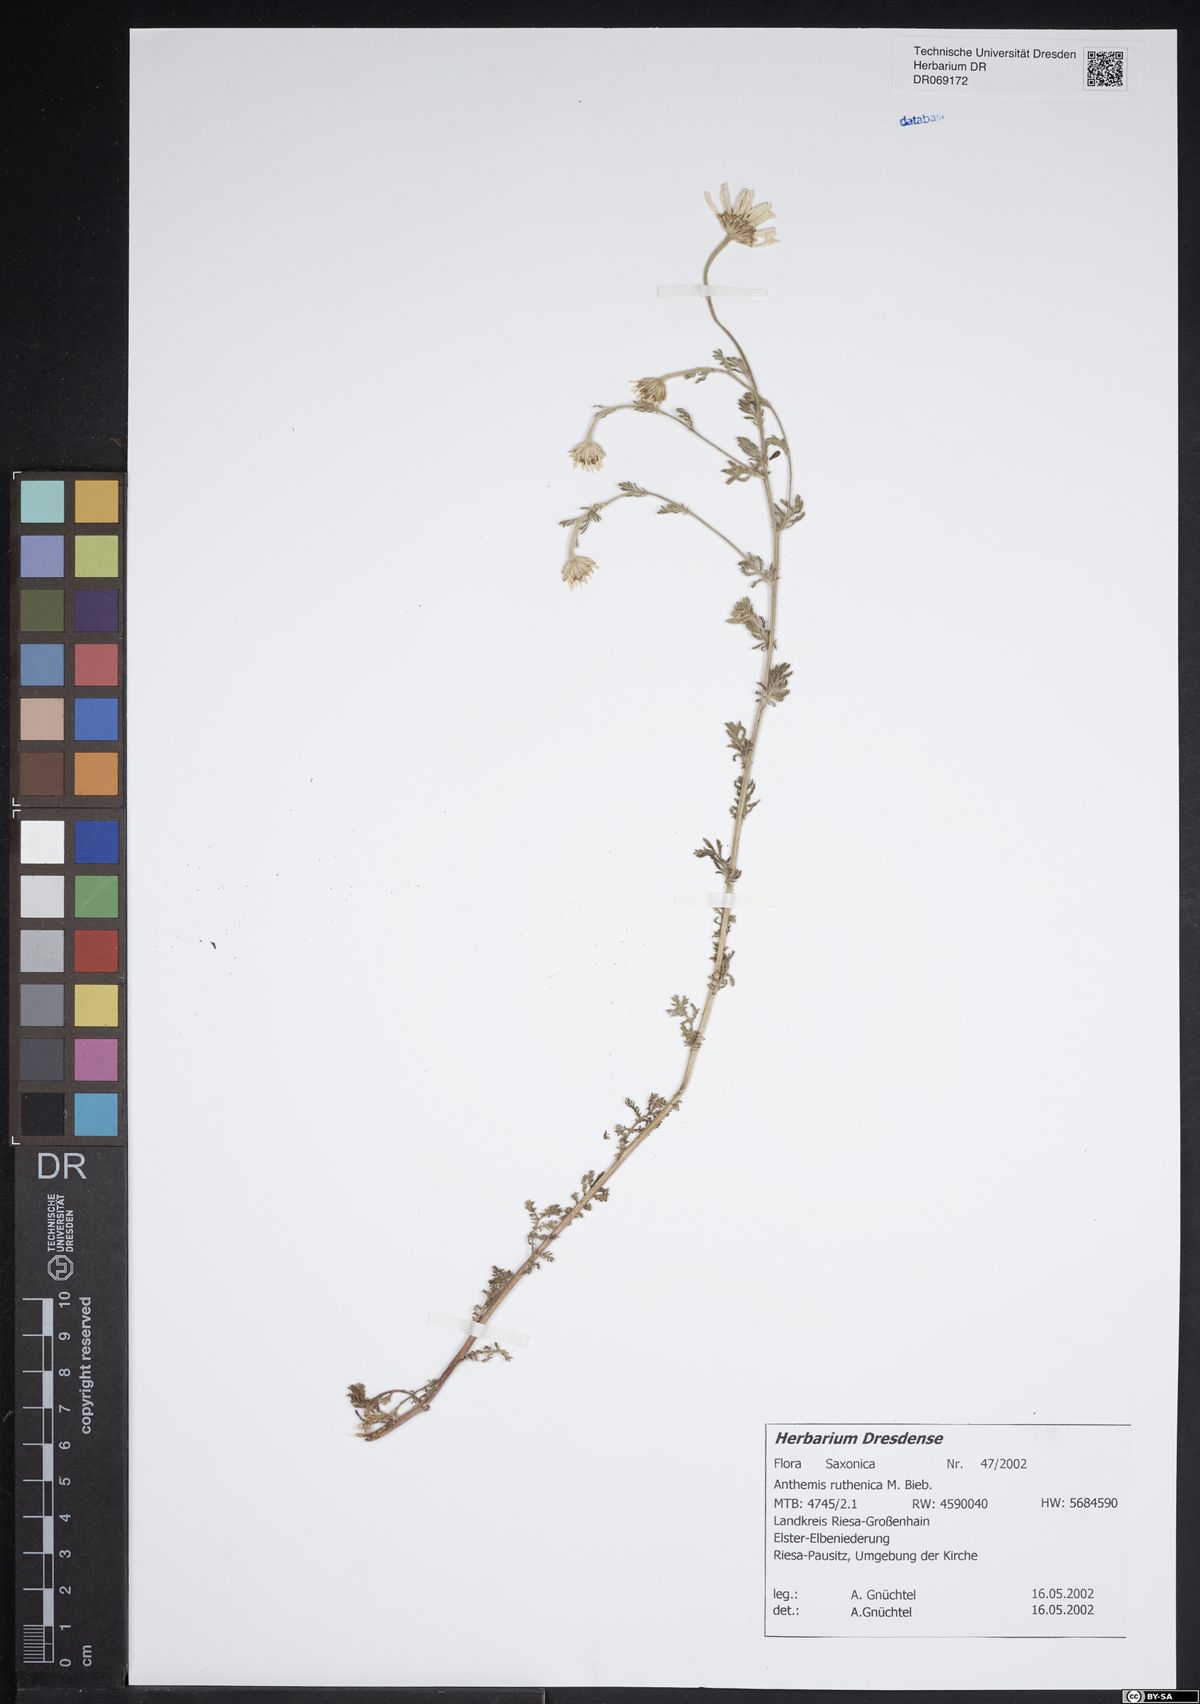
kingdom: Plantae
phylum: Tracheophyta
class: Magnoliopsida
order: Asterales
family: Asteraceae
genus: Anthemis
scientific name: Anthemis ruthenica
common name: Eastern chamomile
